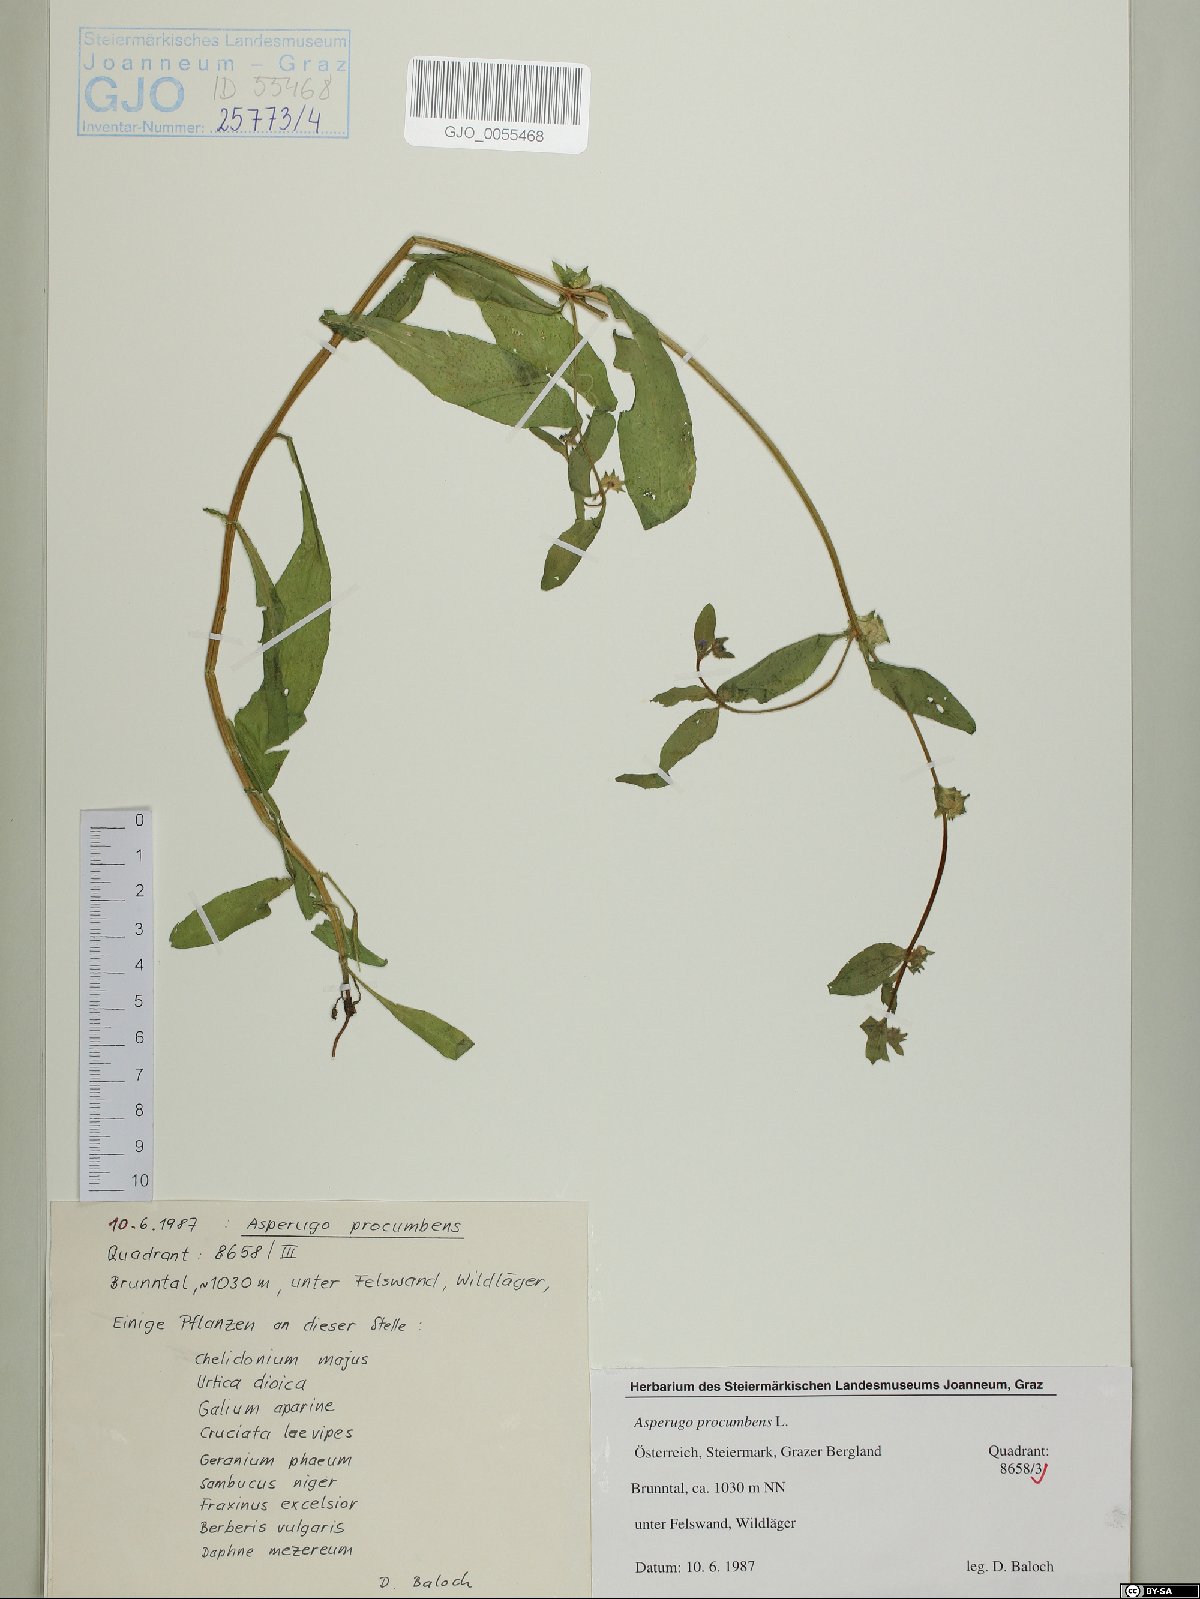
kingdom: Plantae
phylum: Tracheophyta
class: Magnoliopsida
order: Boraginales
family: Boraginaceae
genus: Asperugo
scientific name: Asperugo procumbens
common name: Madwort
